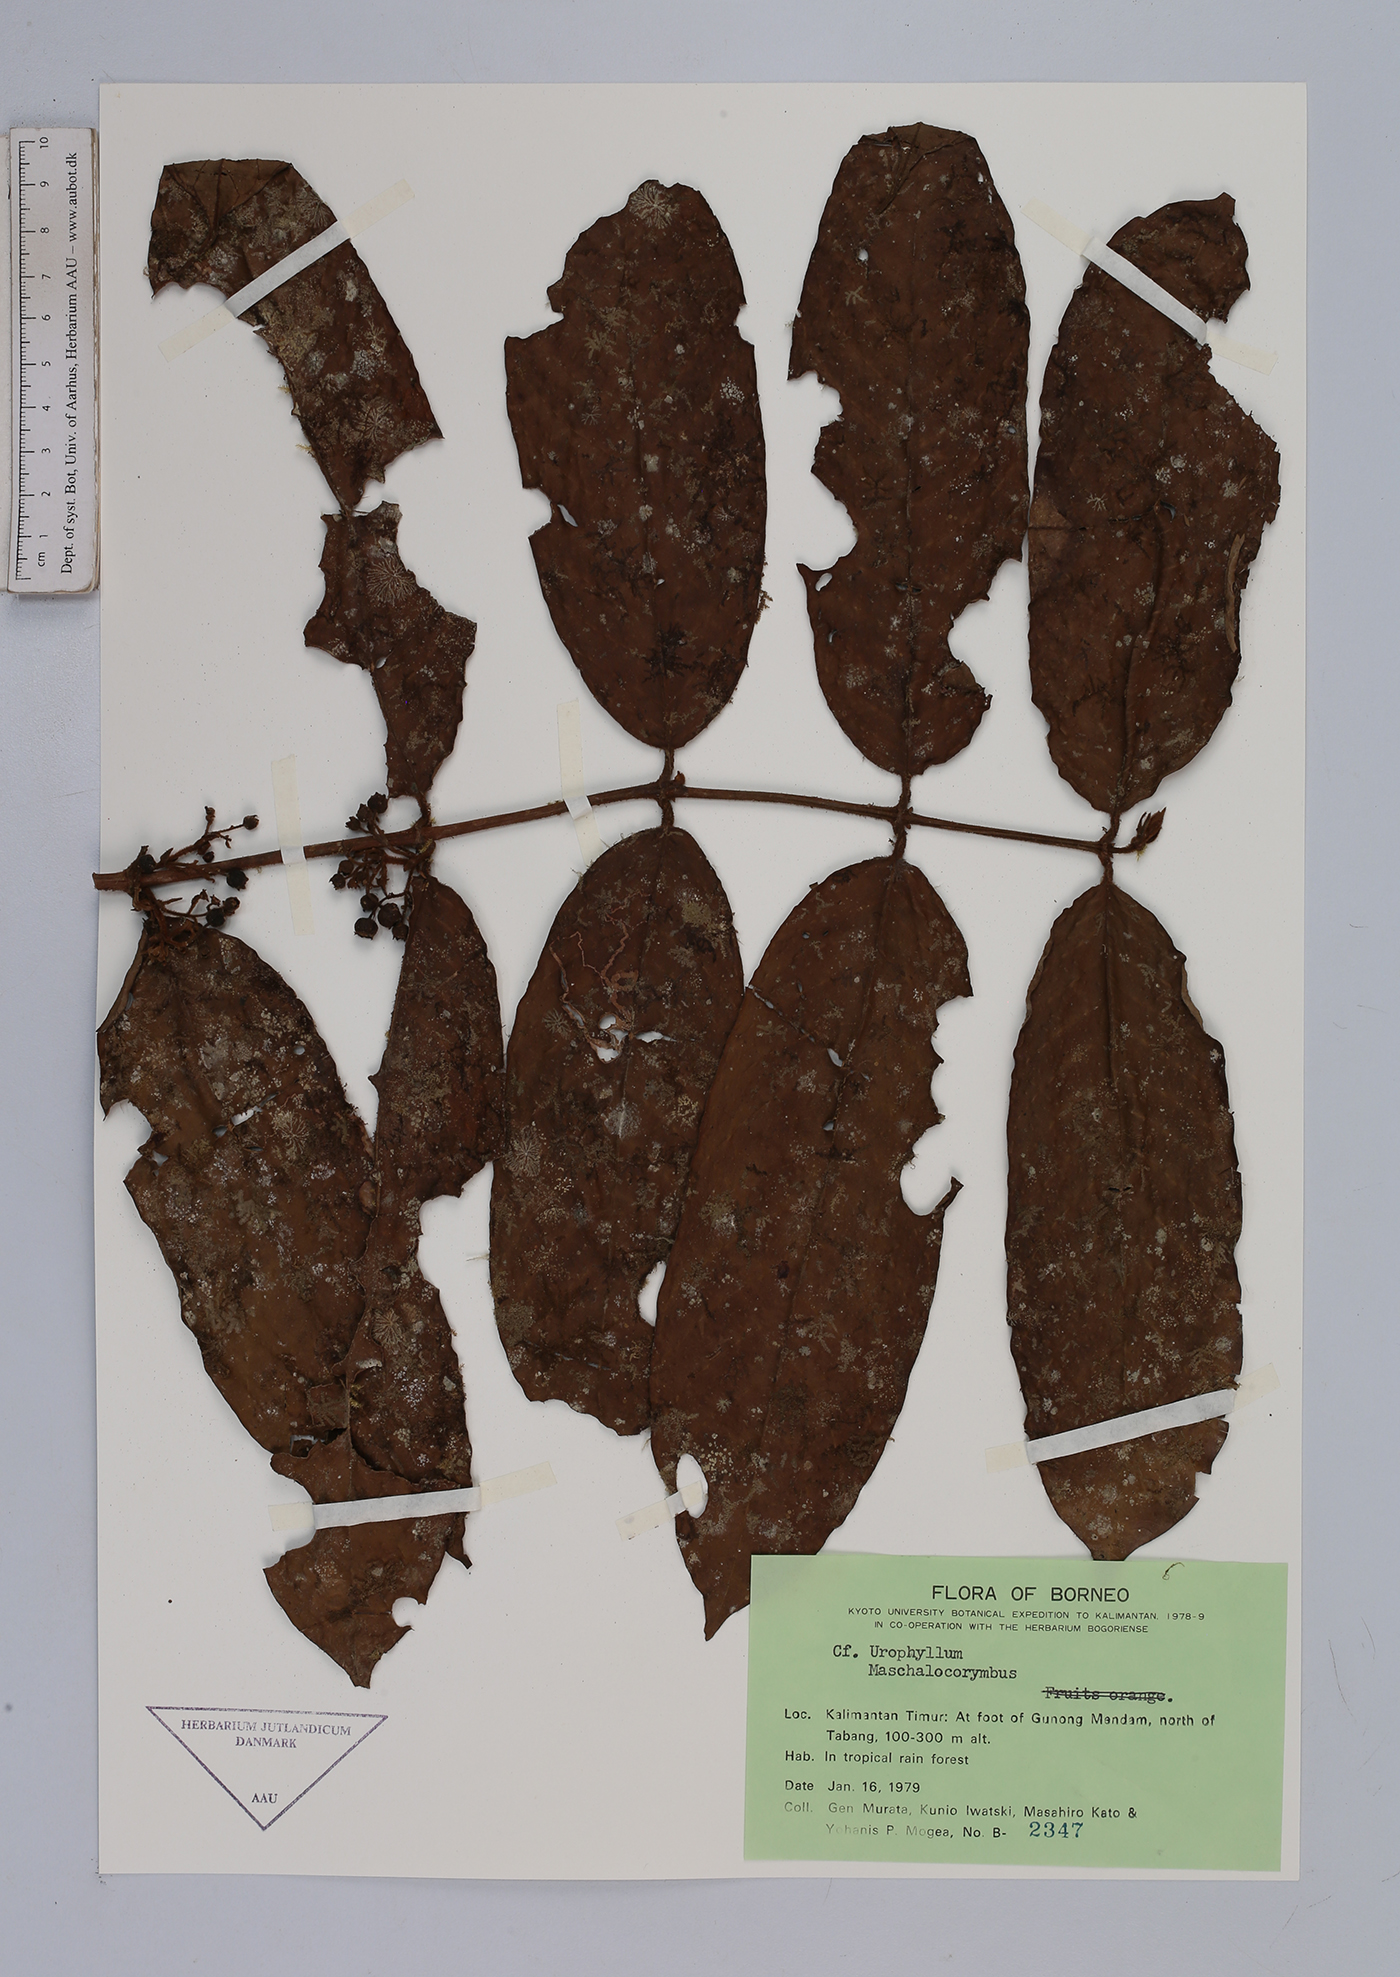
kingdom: Plantae
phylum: Tracheophyta
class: Magnoliopsida
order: Gentianales
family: Rubiaceae
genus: Urophyllum
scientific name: Urophyllum
